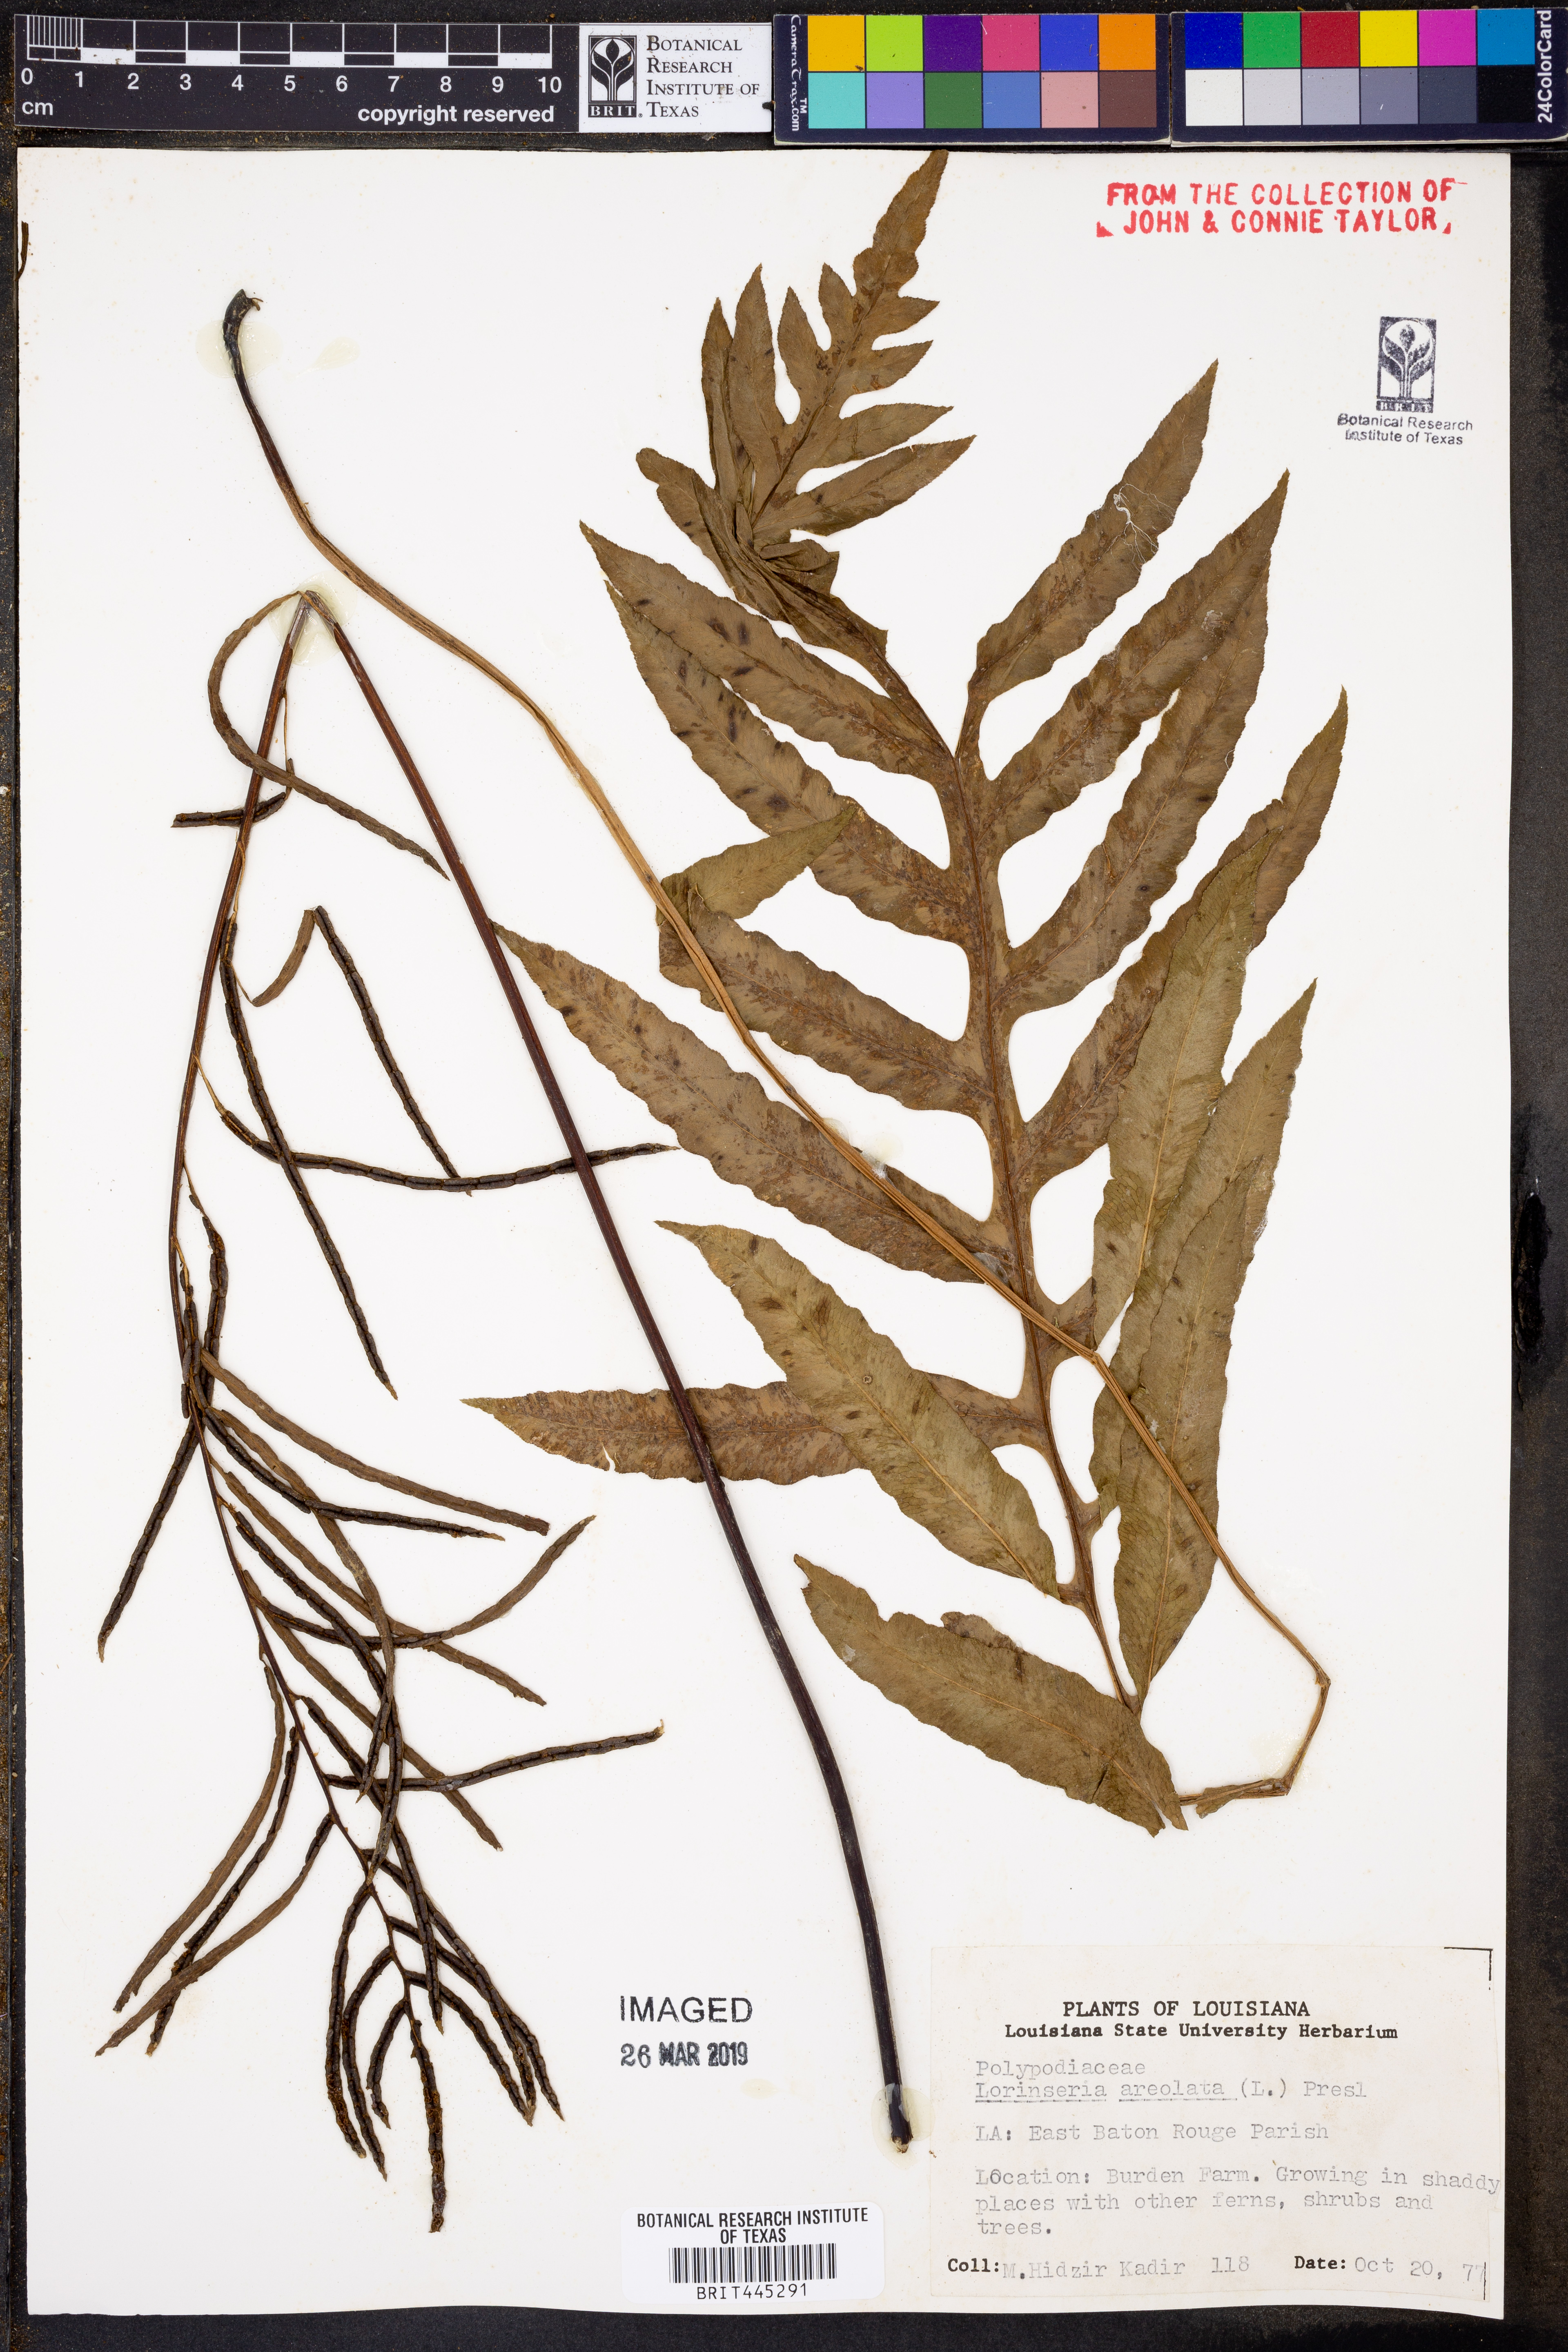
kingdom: Plantae
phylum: Tracheophyta
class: Polypodiopsida
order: Polypodiales
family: Blechnaceae
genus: Lorinseria
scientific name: Lorinseria areolata
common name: Dwarf chain fern
